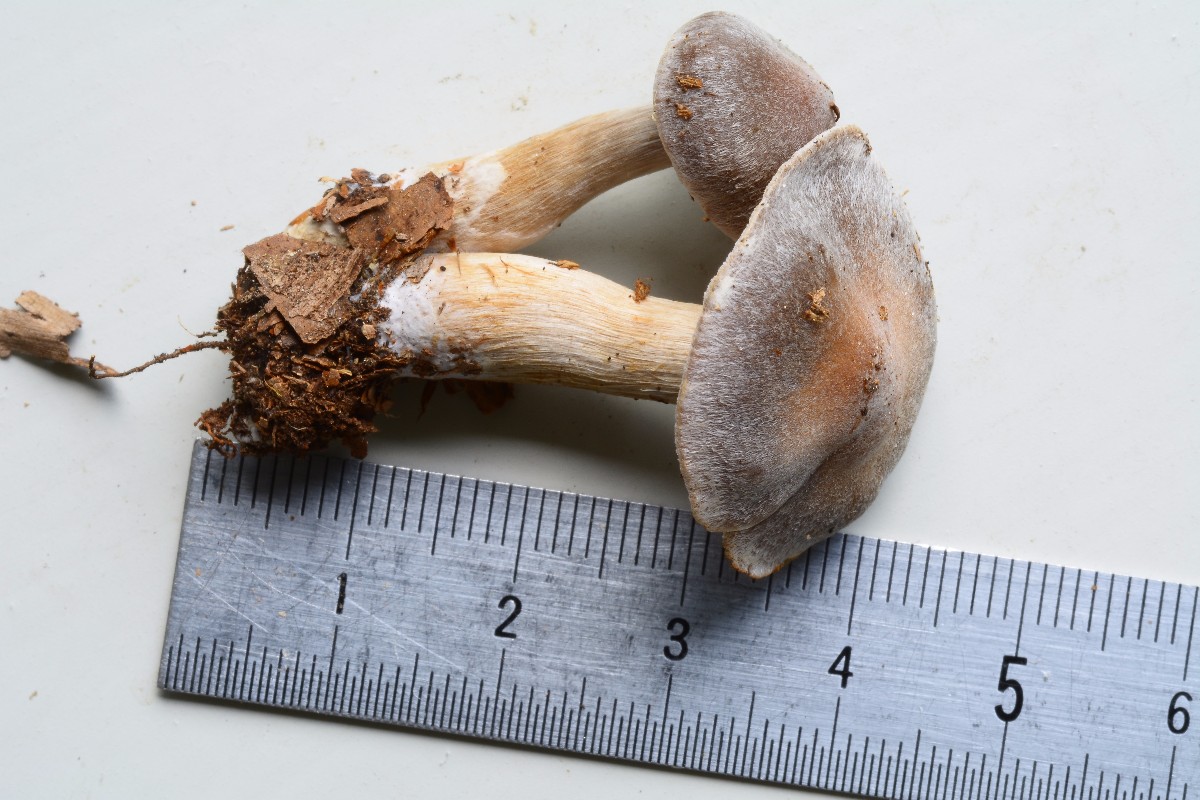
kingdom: Fungi
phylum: Basidiomycota
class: Agaricomycetes
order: Agaricales
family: Cortinariaceae
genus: Cortinarius
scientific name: Cortinarius
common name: pelargonie-slørhat
